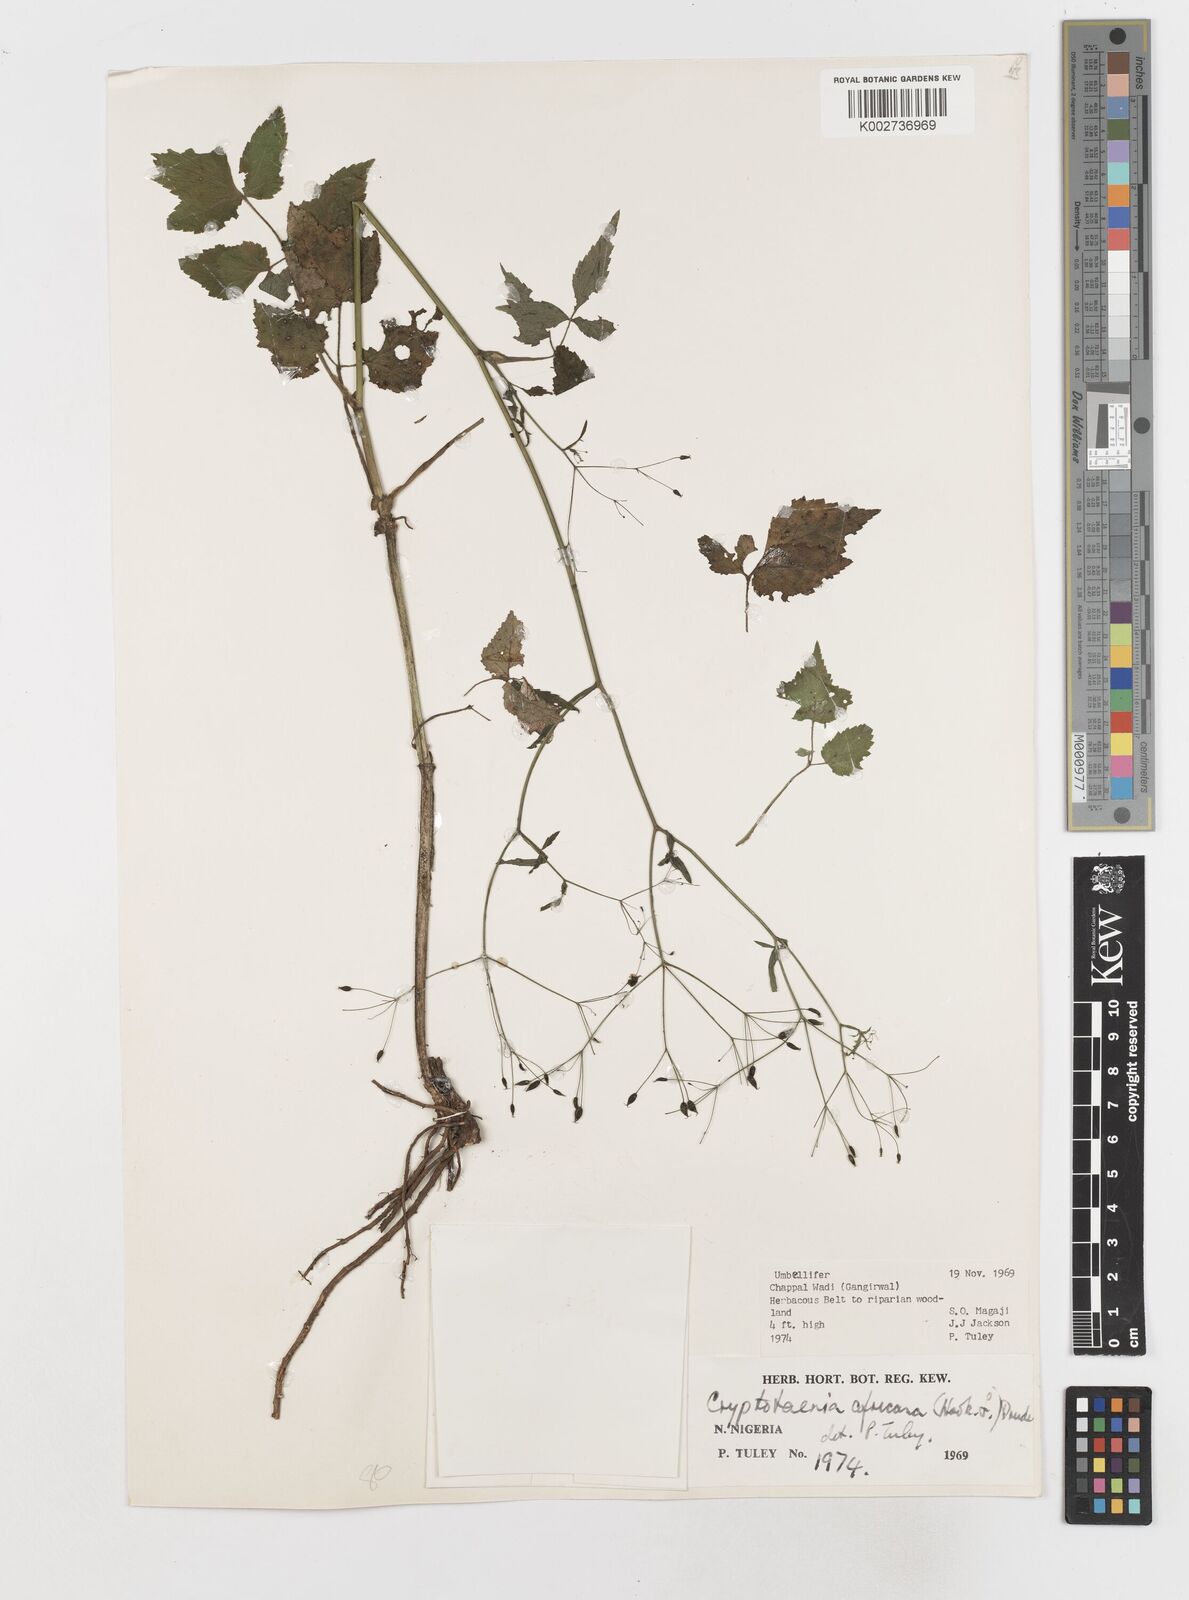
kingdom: Plantae
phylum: Tracheophyta
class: Magnoliopsida
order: Apiales
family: Apiaceae
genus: Cryptotaenia
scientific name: Cryptotaenia africana
